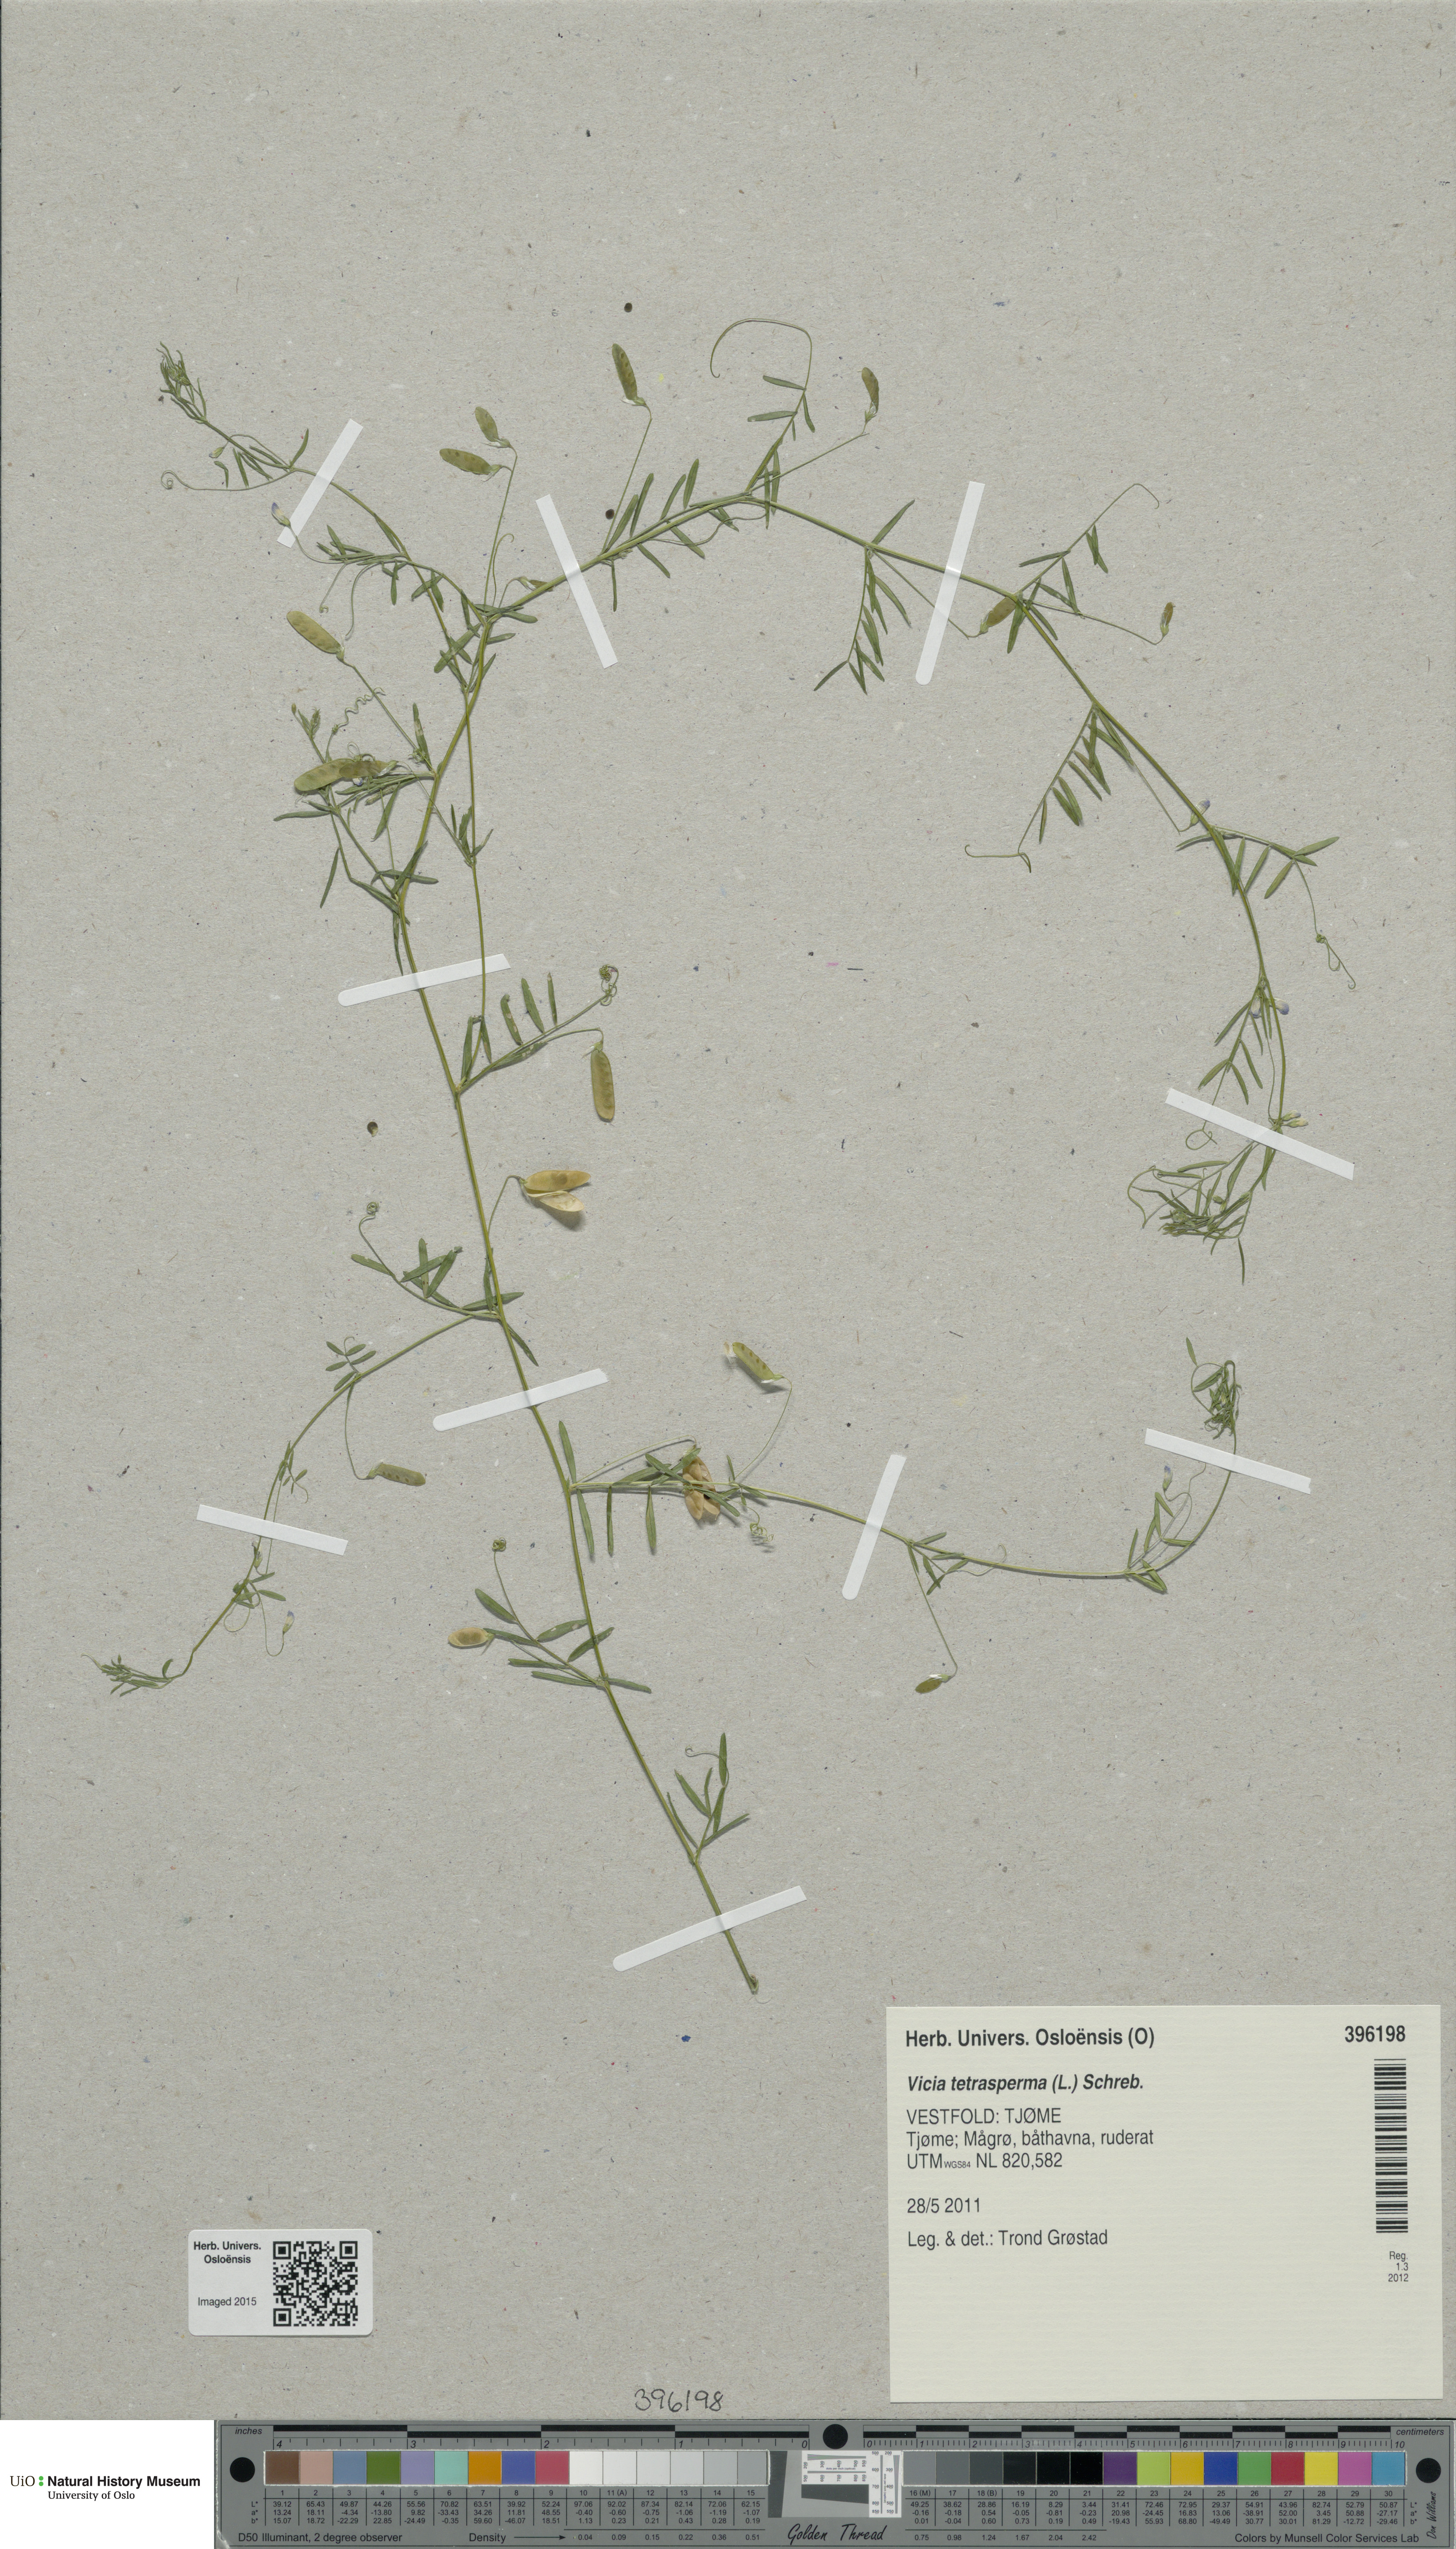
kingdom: Plantae
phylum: Tracheophyta
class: Magnoliopsida
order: Fabales
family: Fabaceae
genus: Vicia
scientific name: Vicia tetrasperma
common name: Smooth tare
